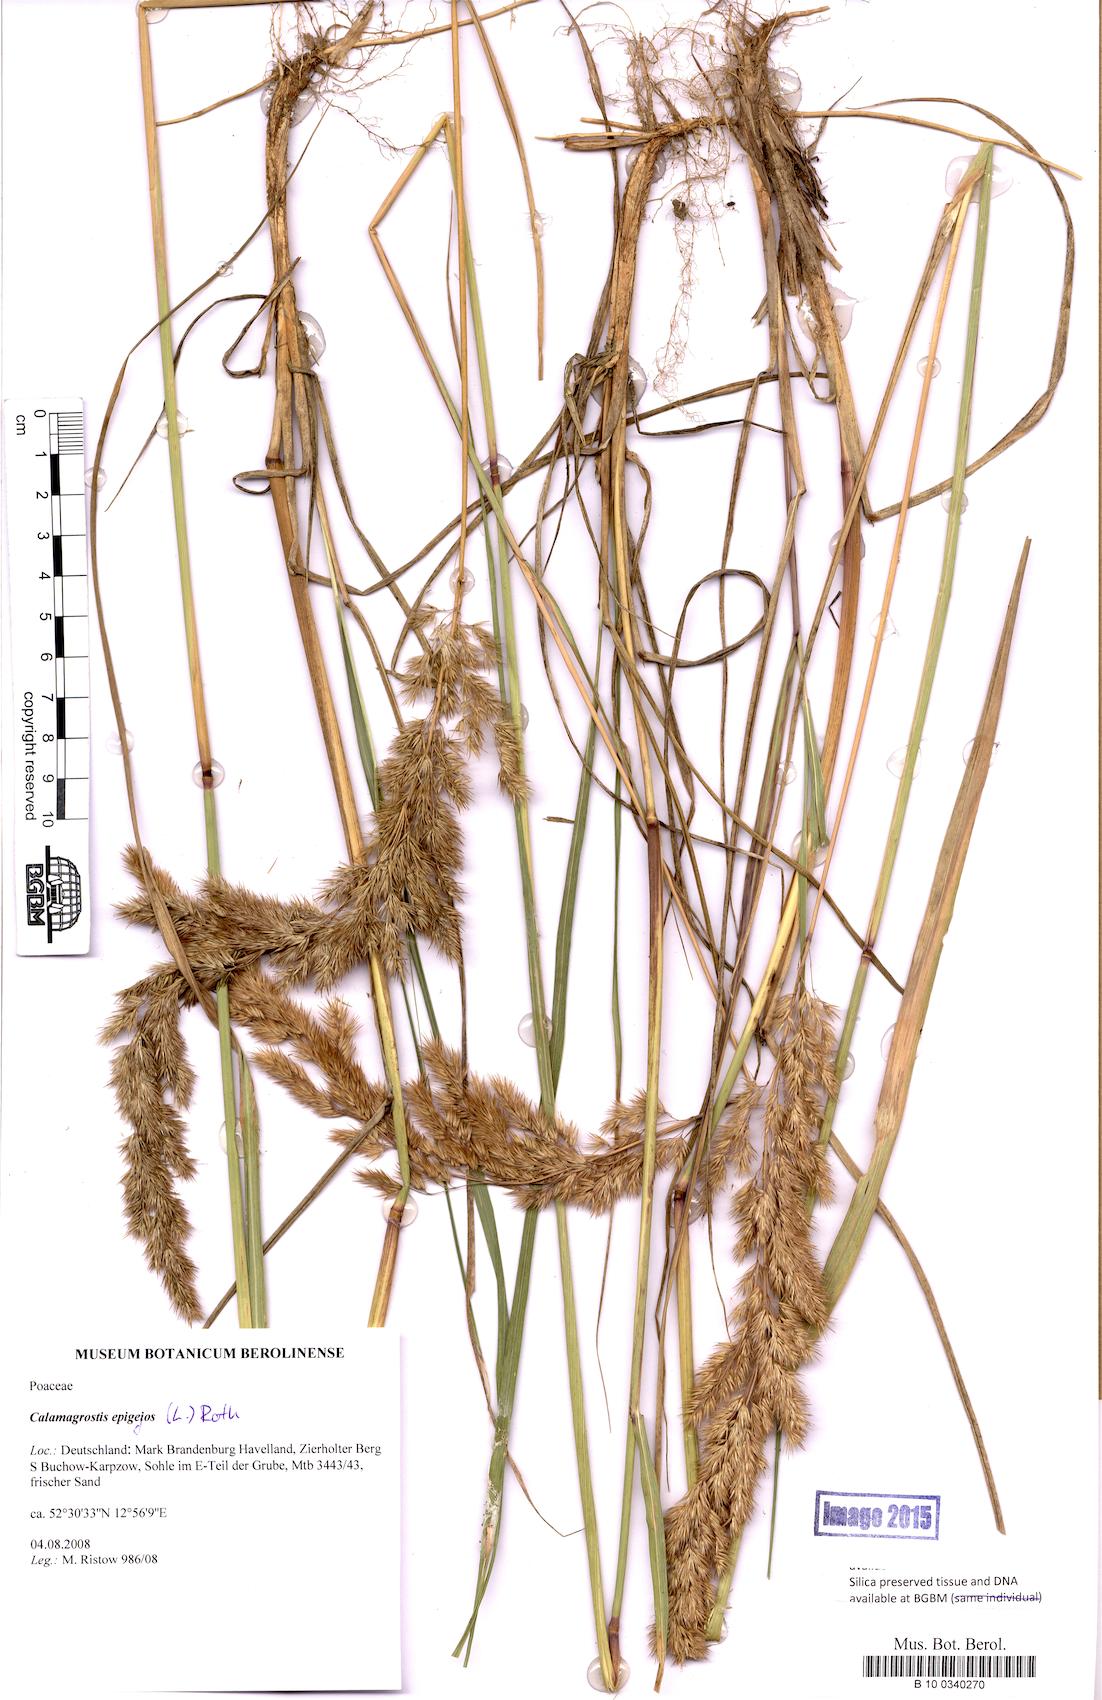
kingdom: Plantae
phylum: Tracheophyta
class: Liliopsida
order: Poales
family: Poaceae
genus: Calamagrostis
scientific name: Calamagrostis epigejos
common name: Wood small-reed
